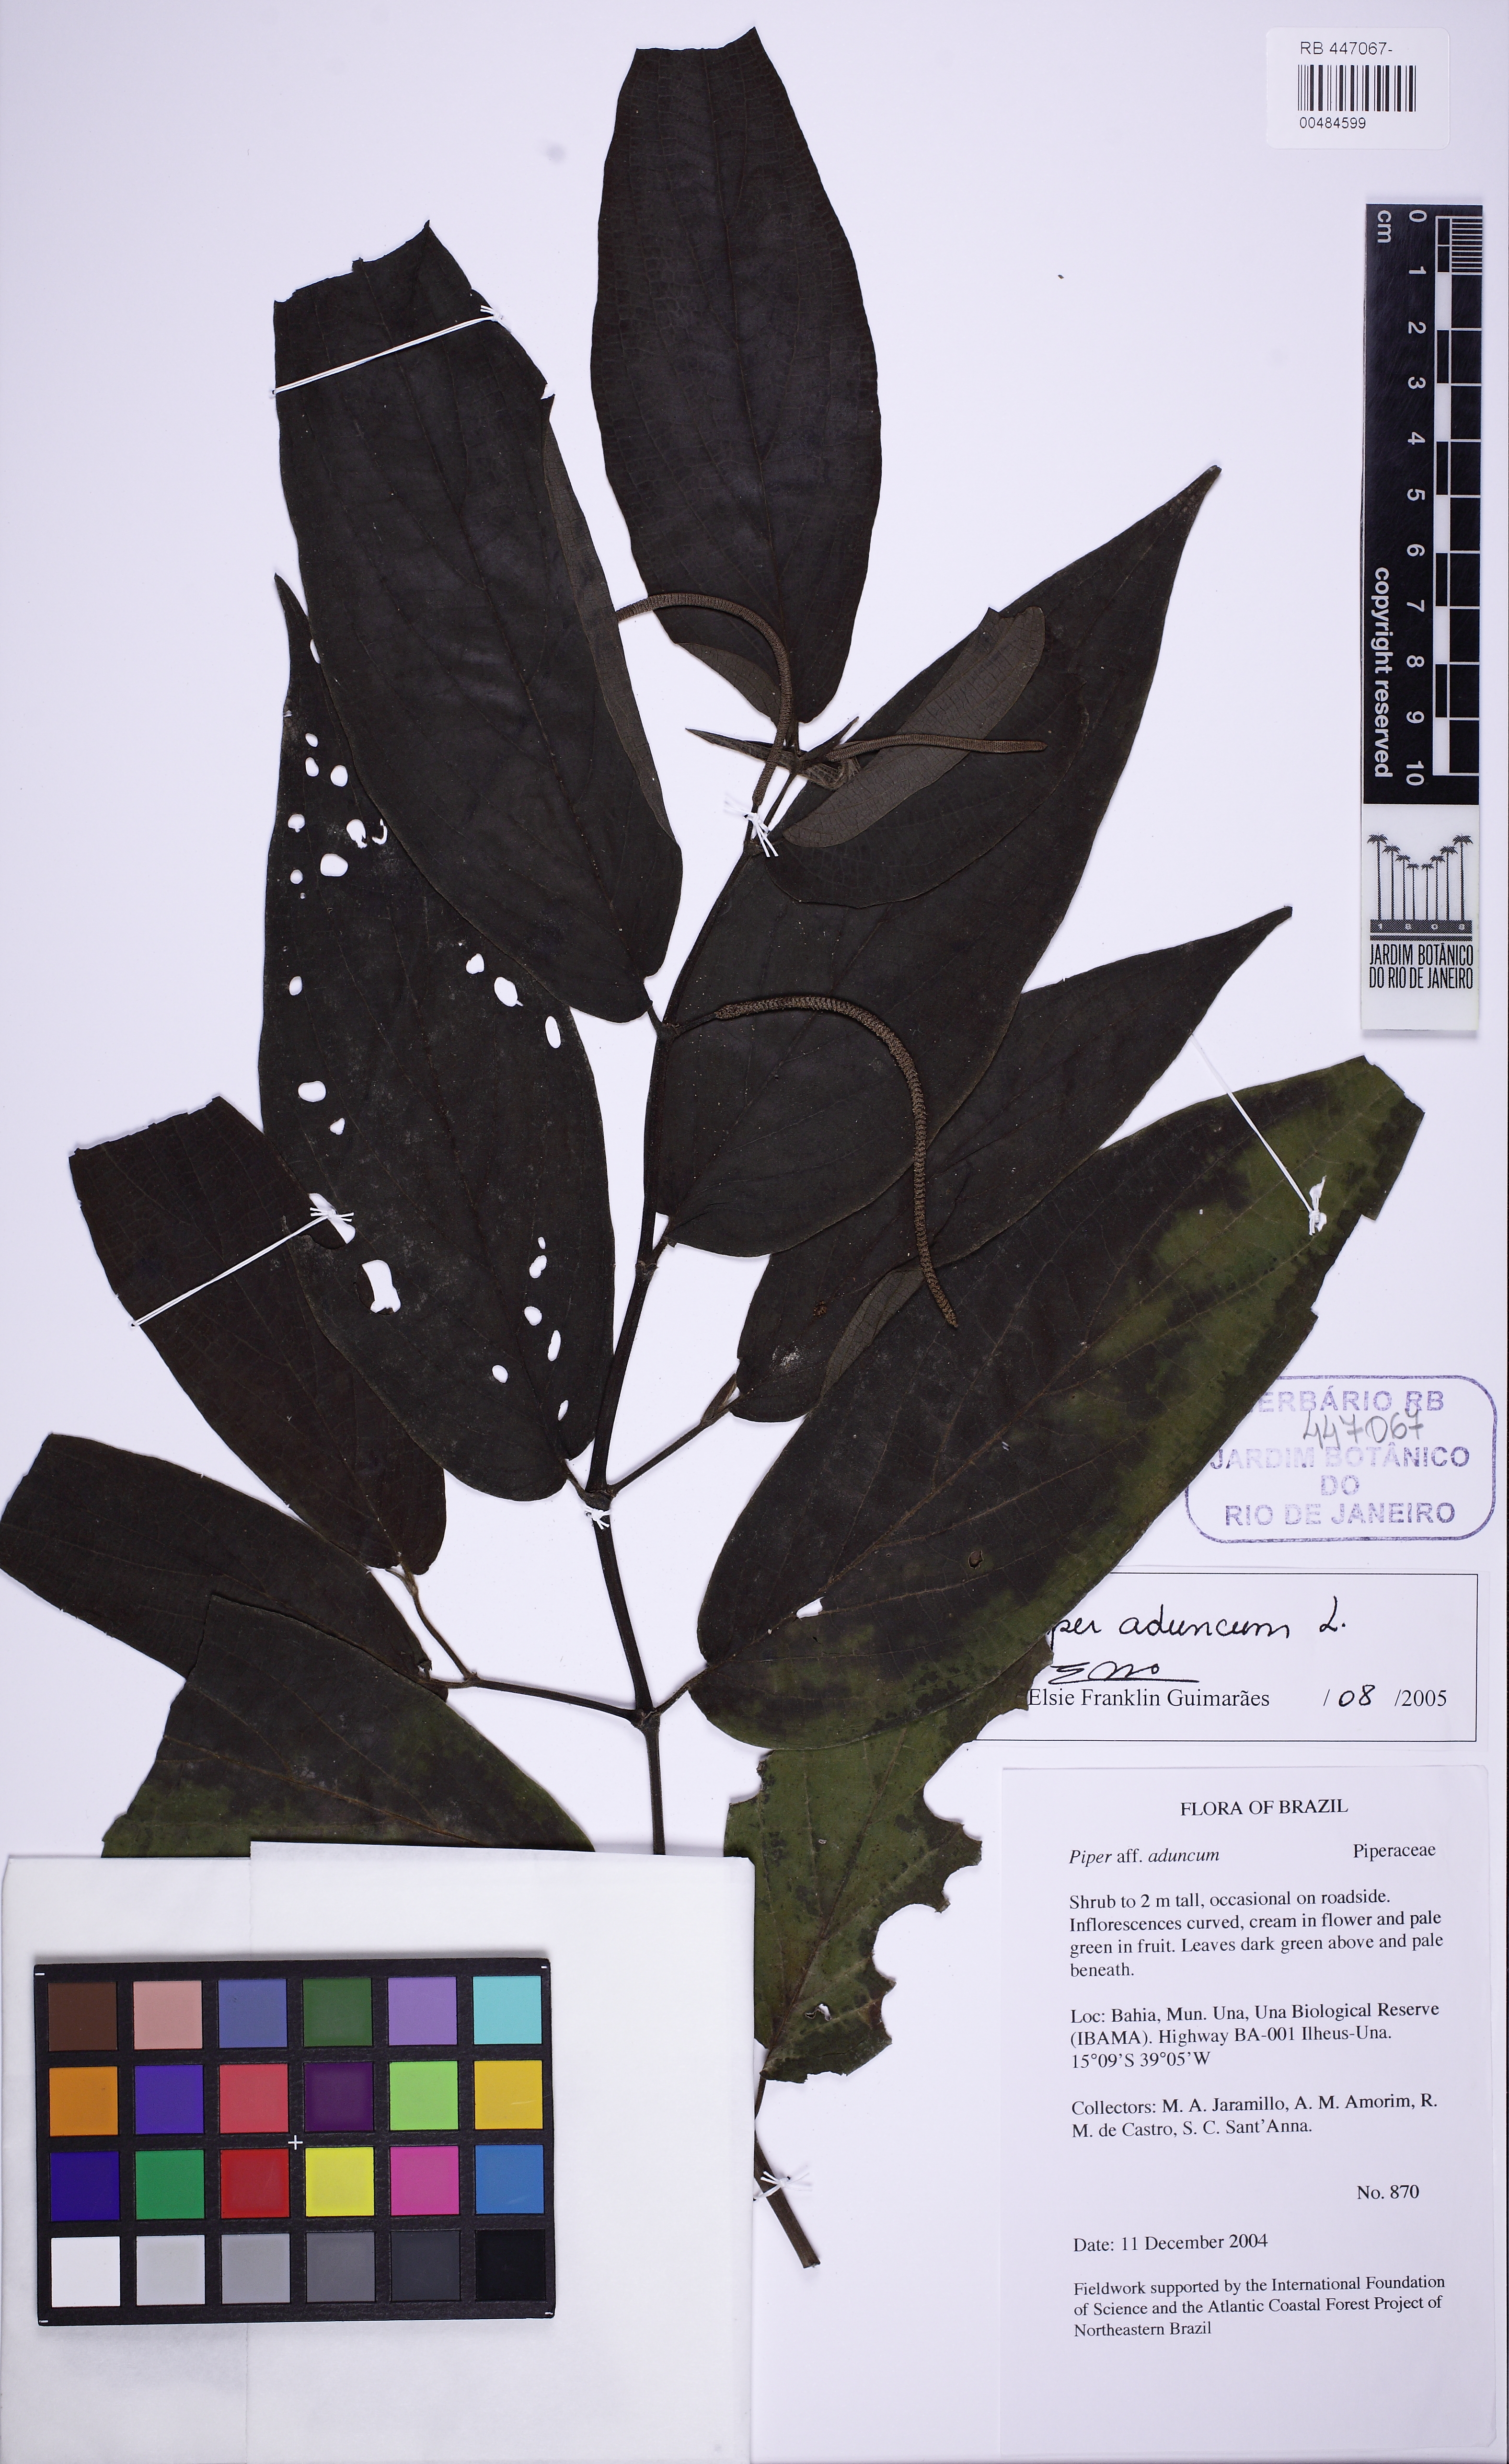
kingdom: Plantae
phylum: Tracheophyta
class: Magnoliopsida
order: Piperales
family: Piperaceae
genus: Piper
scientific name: Piper aduncum
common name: Spiked pepper
